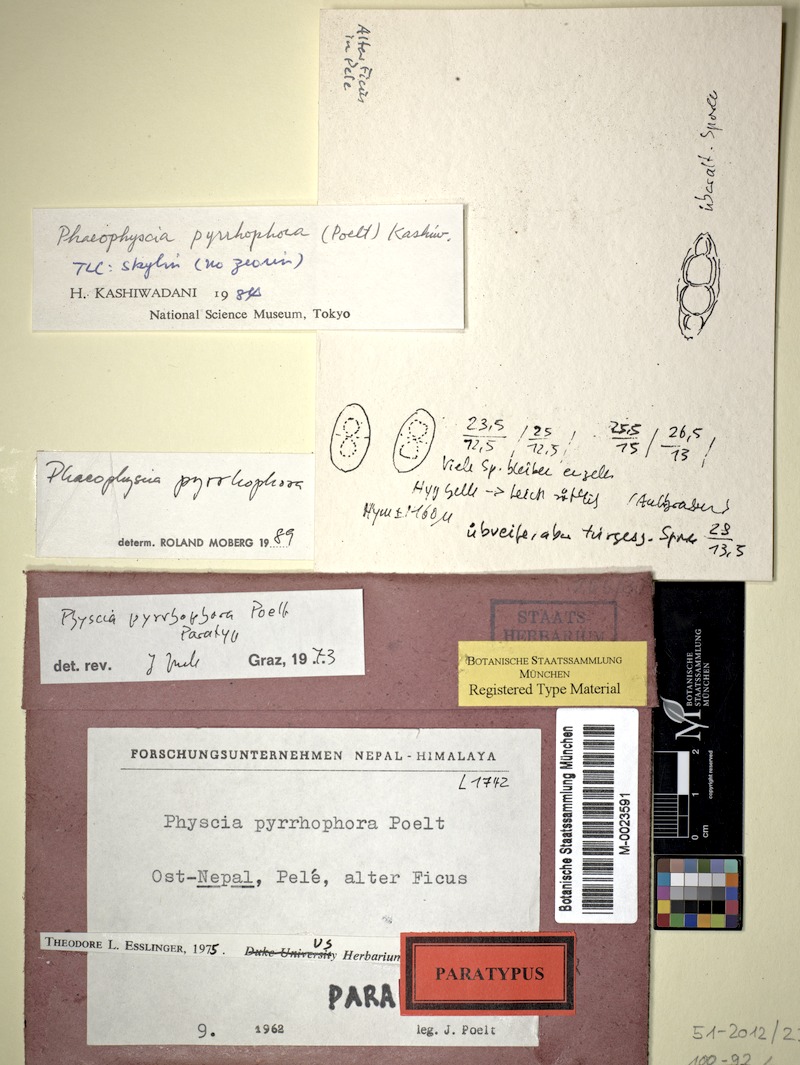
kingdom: Fungi
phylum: Ascomycota
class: Lecanoromycetes
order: Caliciales
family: Physciaceae
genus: Phaeophyscia
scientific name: Phaeophyscia pyrrhophora
